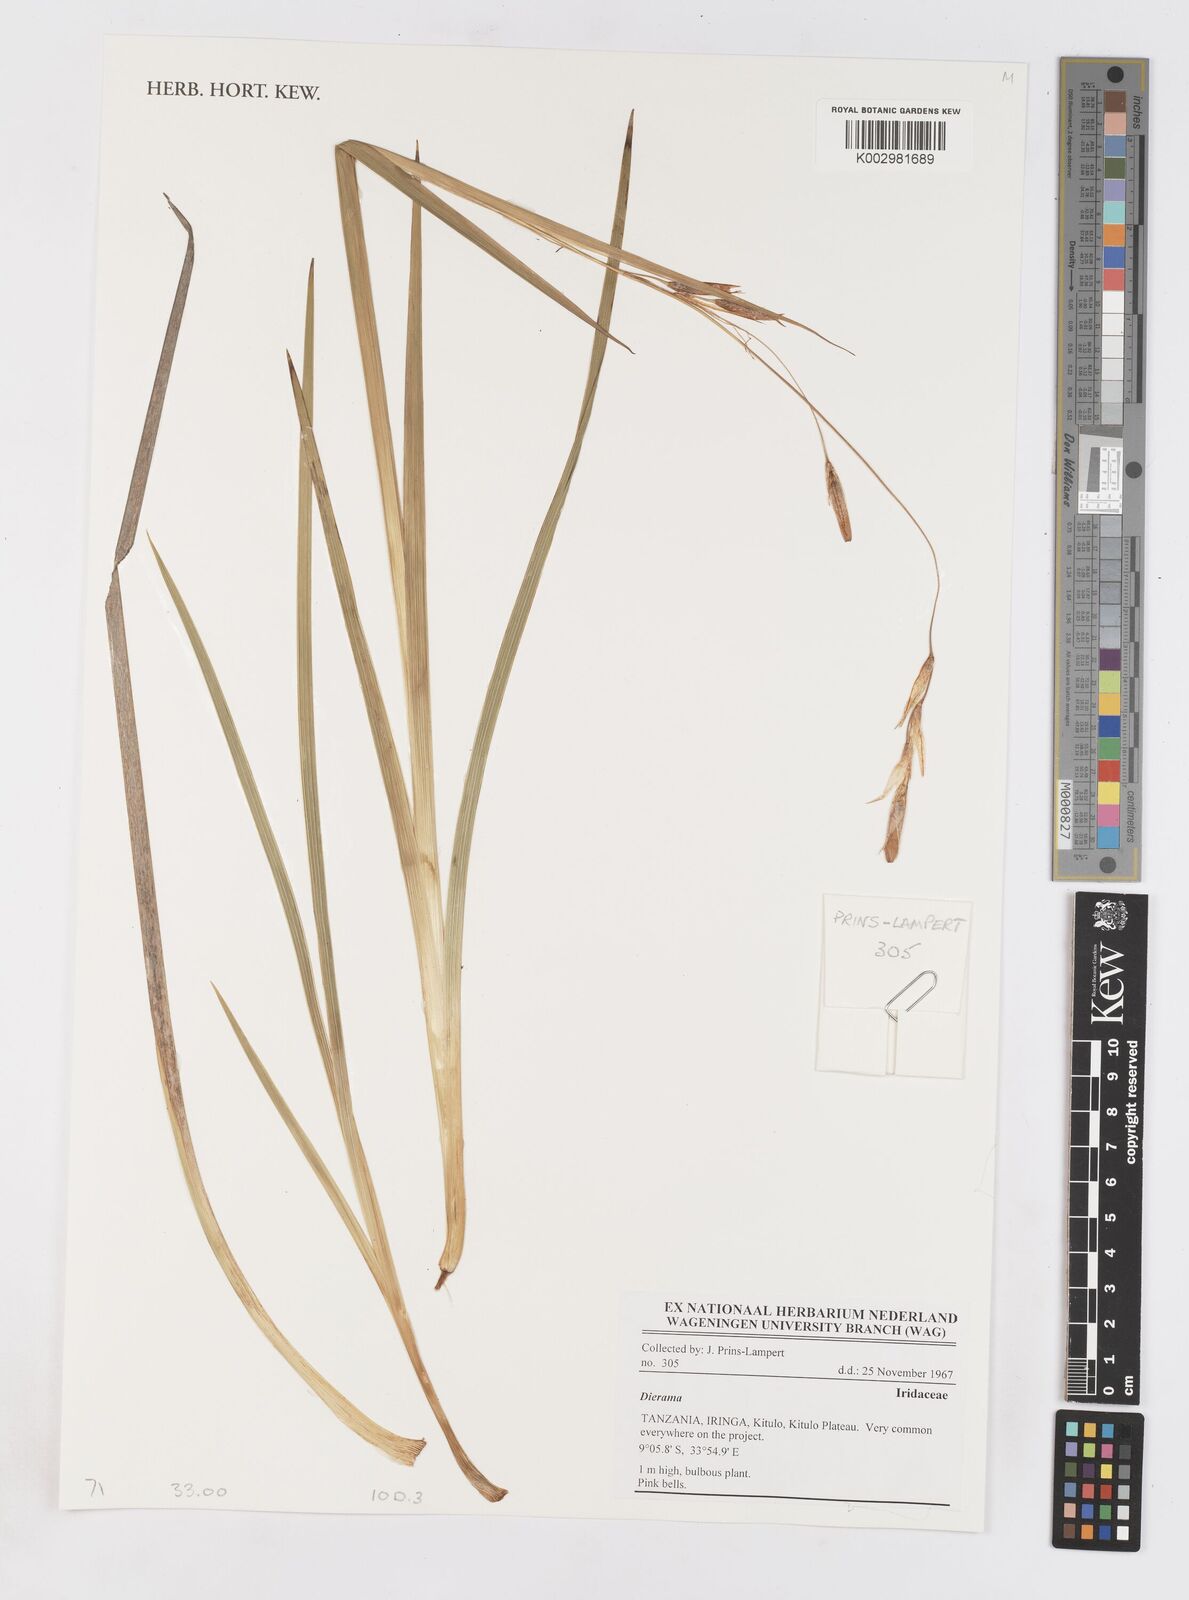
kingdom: Plantae
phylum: Tracheophyta
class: Liliopsida
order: Asparagales
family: Iridaceae
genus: Dierama
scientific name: Dierama
